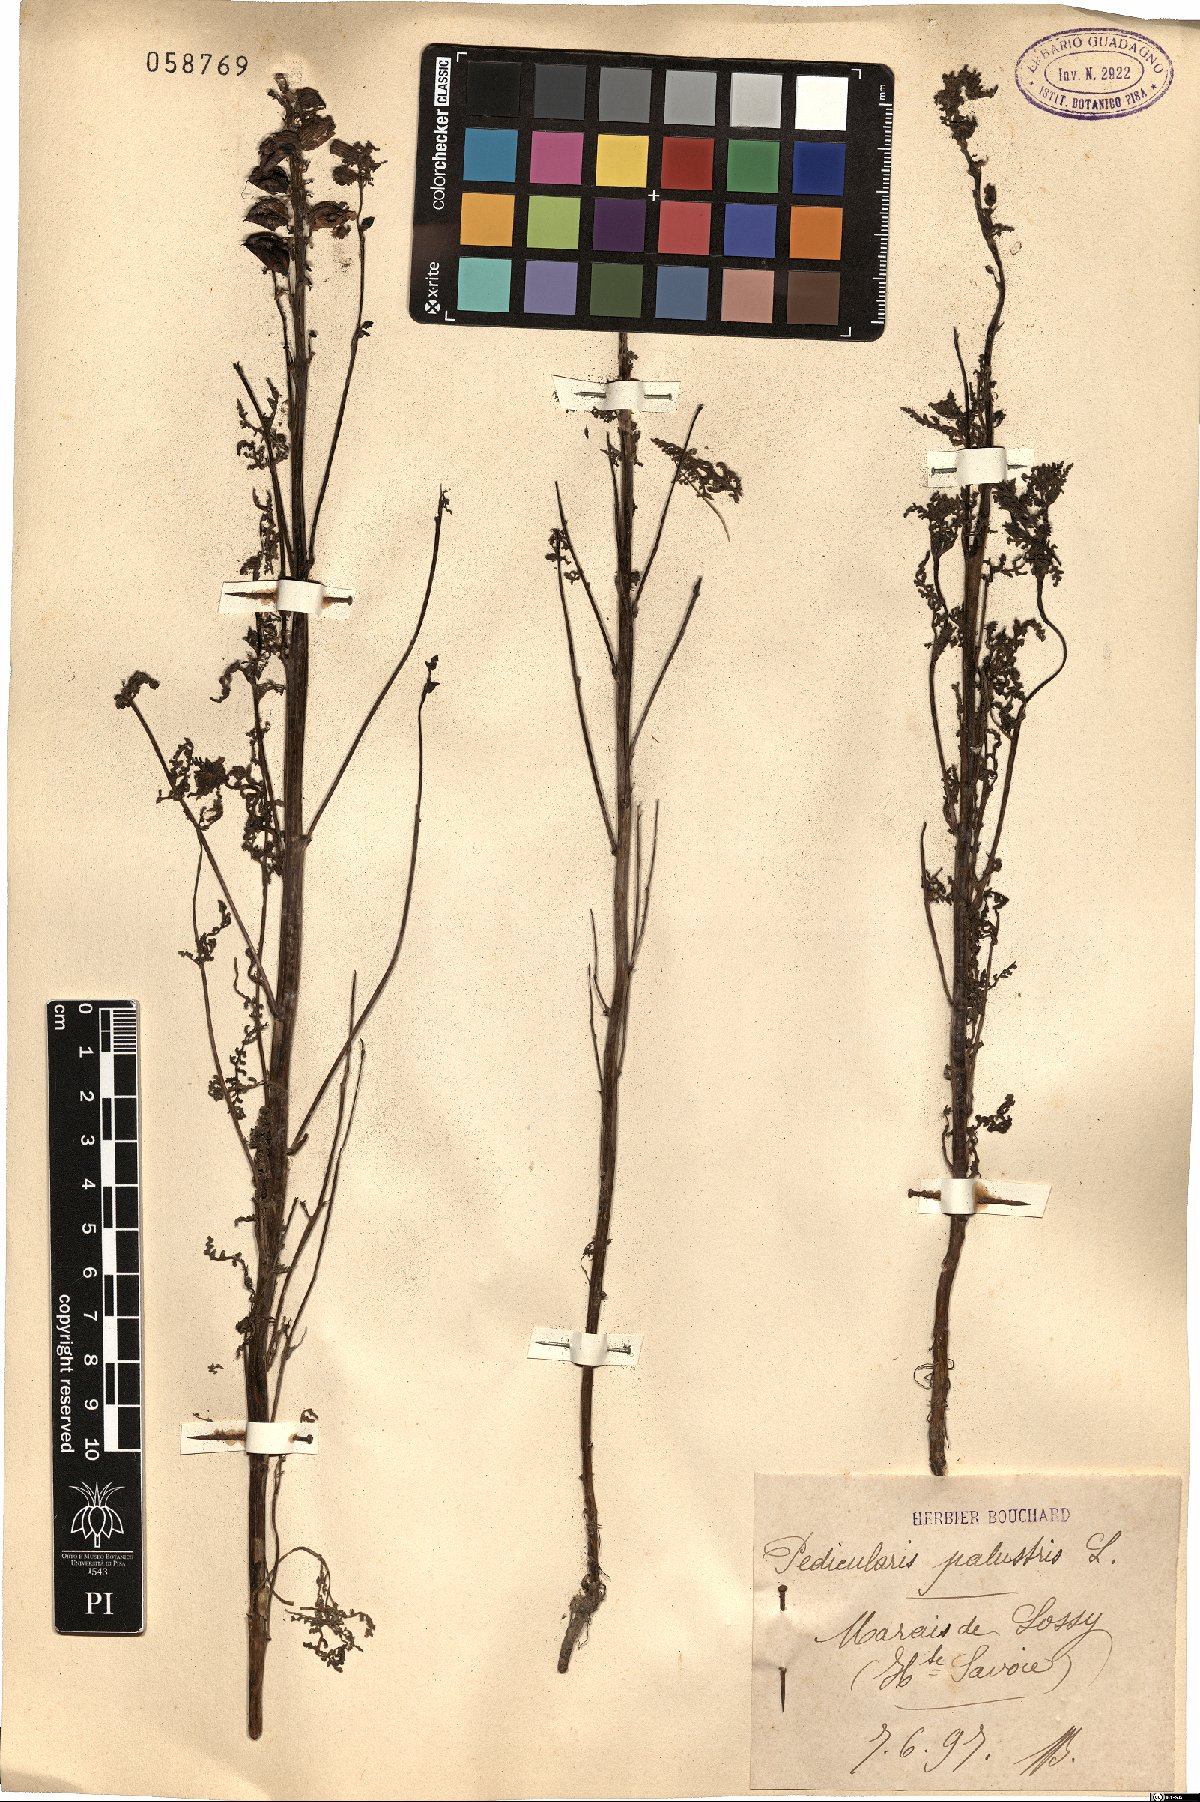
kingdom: Plantae
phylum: Tracheophyta
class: Magnoliopsida
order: Lamiales
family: Orobanchaceae
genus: Pedicularis
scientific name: Pedicularis palustris
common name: Marsh lousewort
